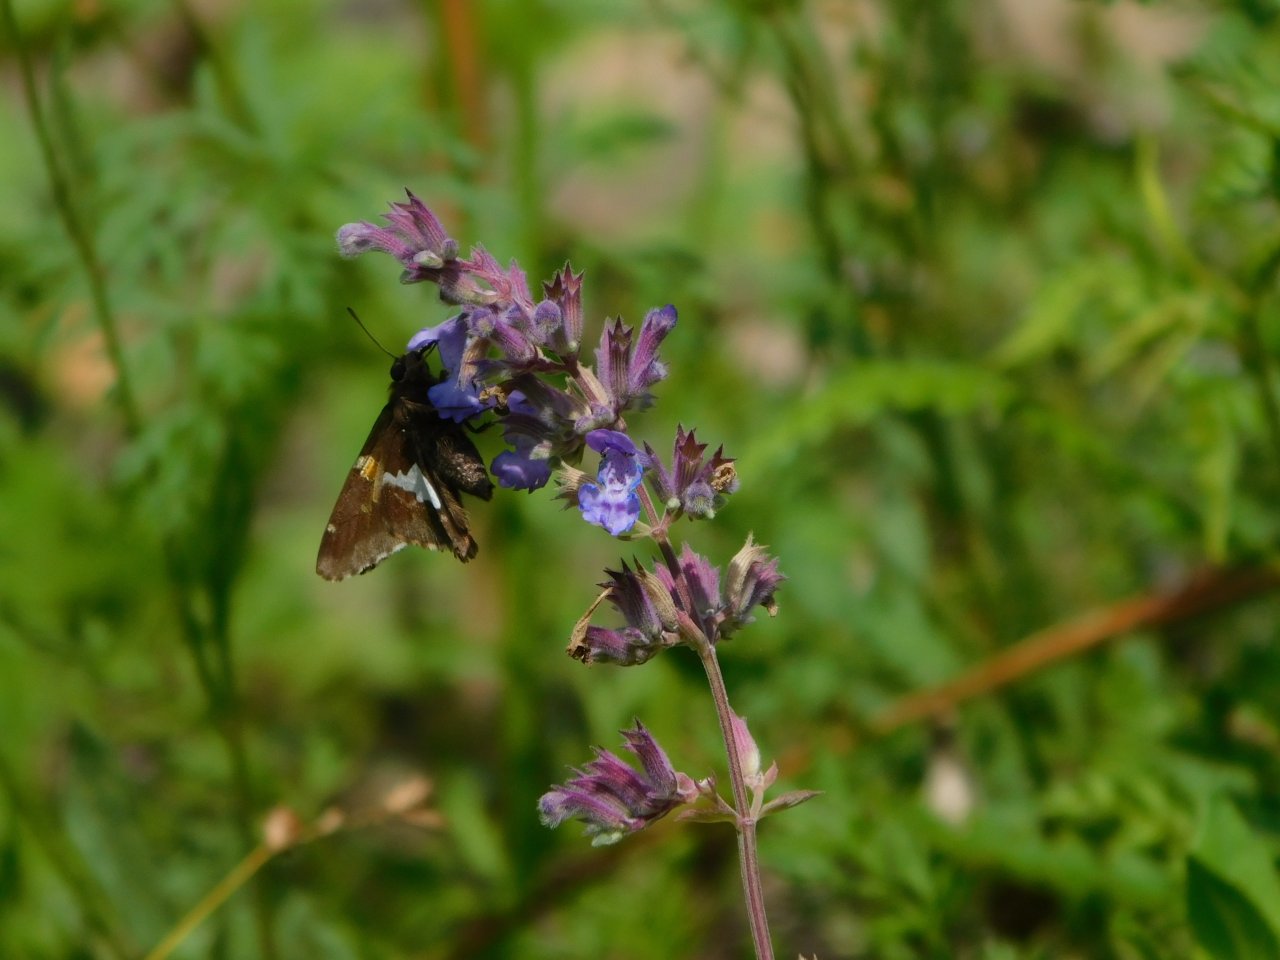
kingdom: Animalia
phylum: Arthropoda
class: Insecta
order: Lepidoptera
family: Hesperiidae
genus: Epargyreus
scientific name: Epargyreus clarus
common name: Silver-spotted Skipper
